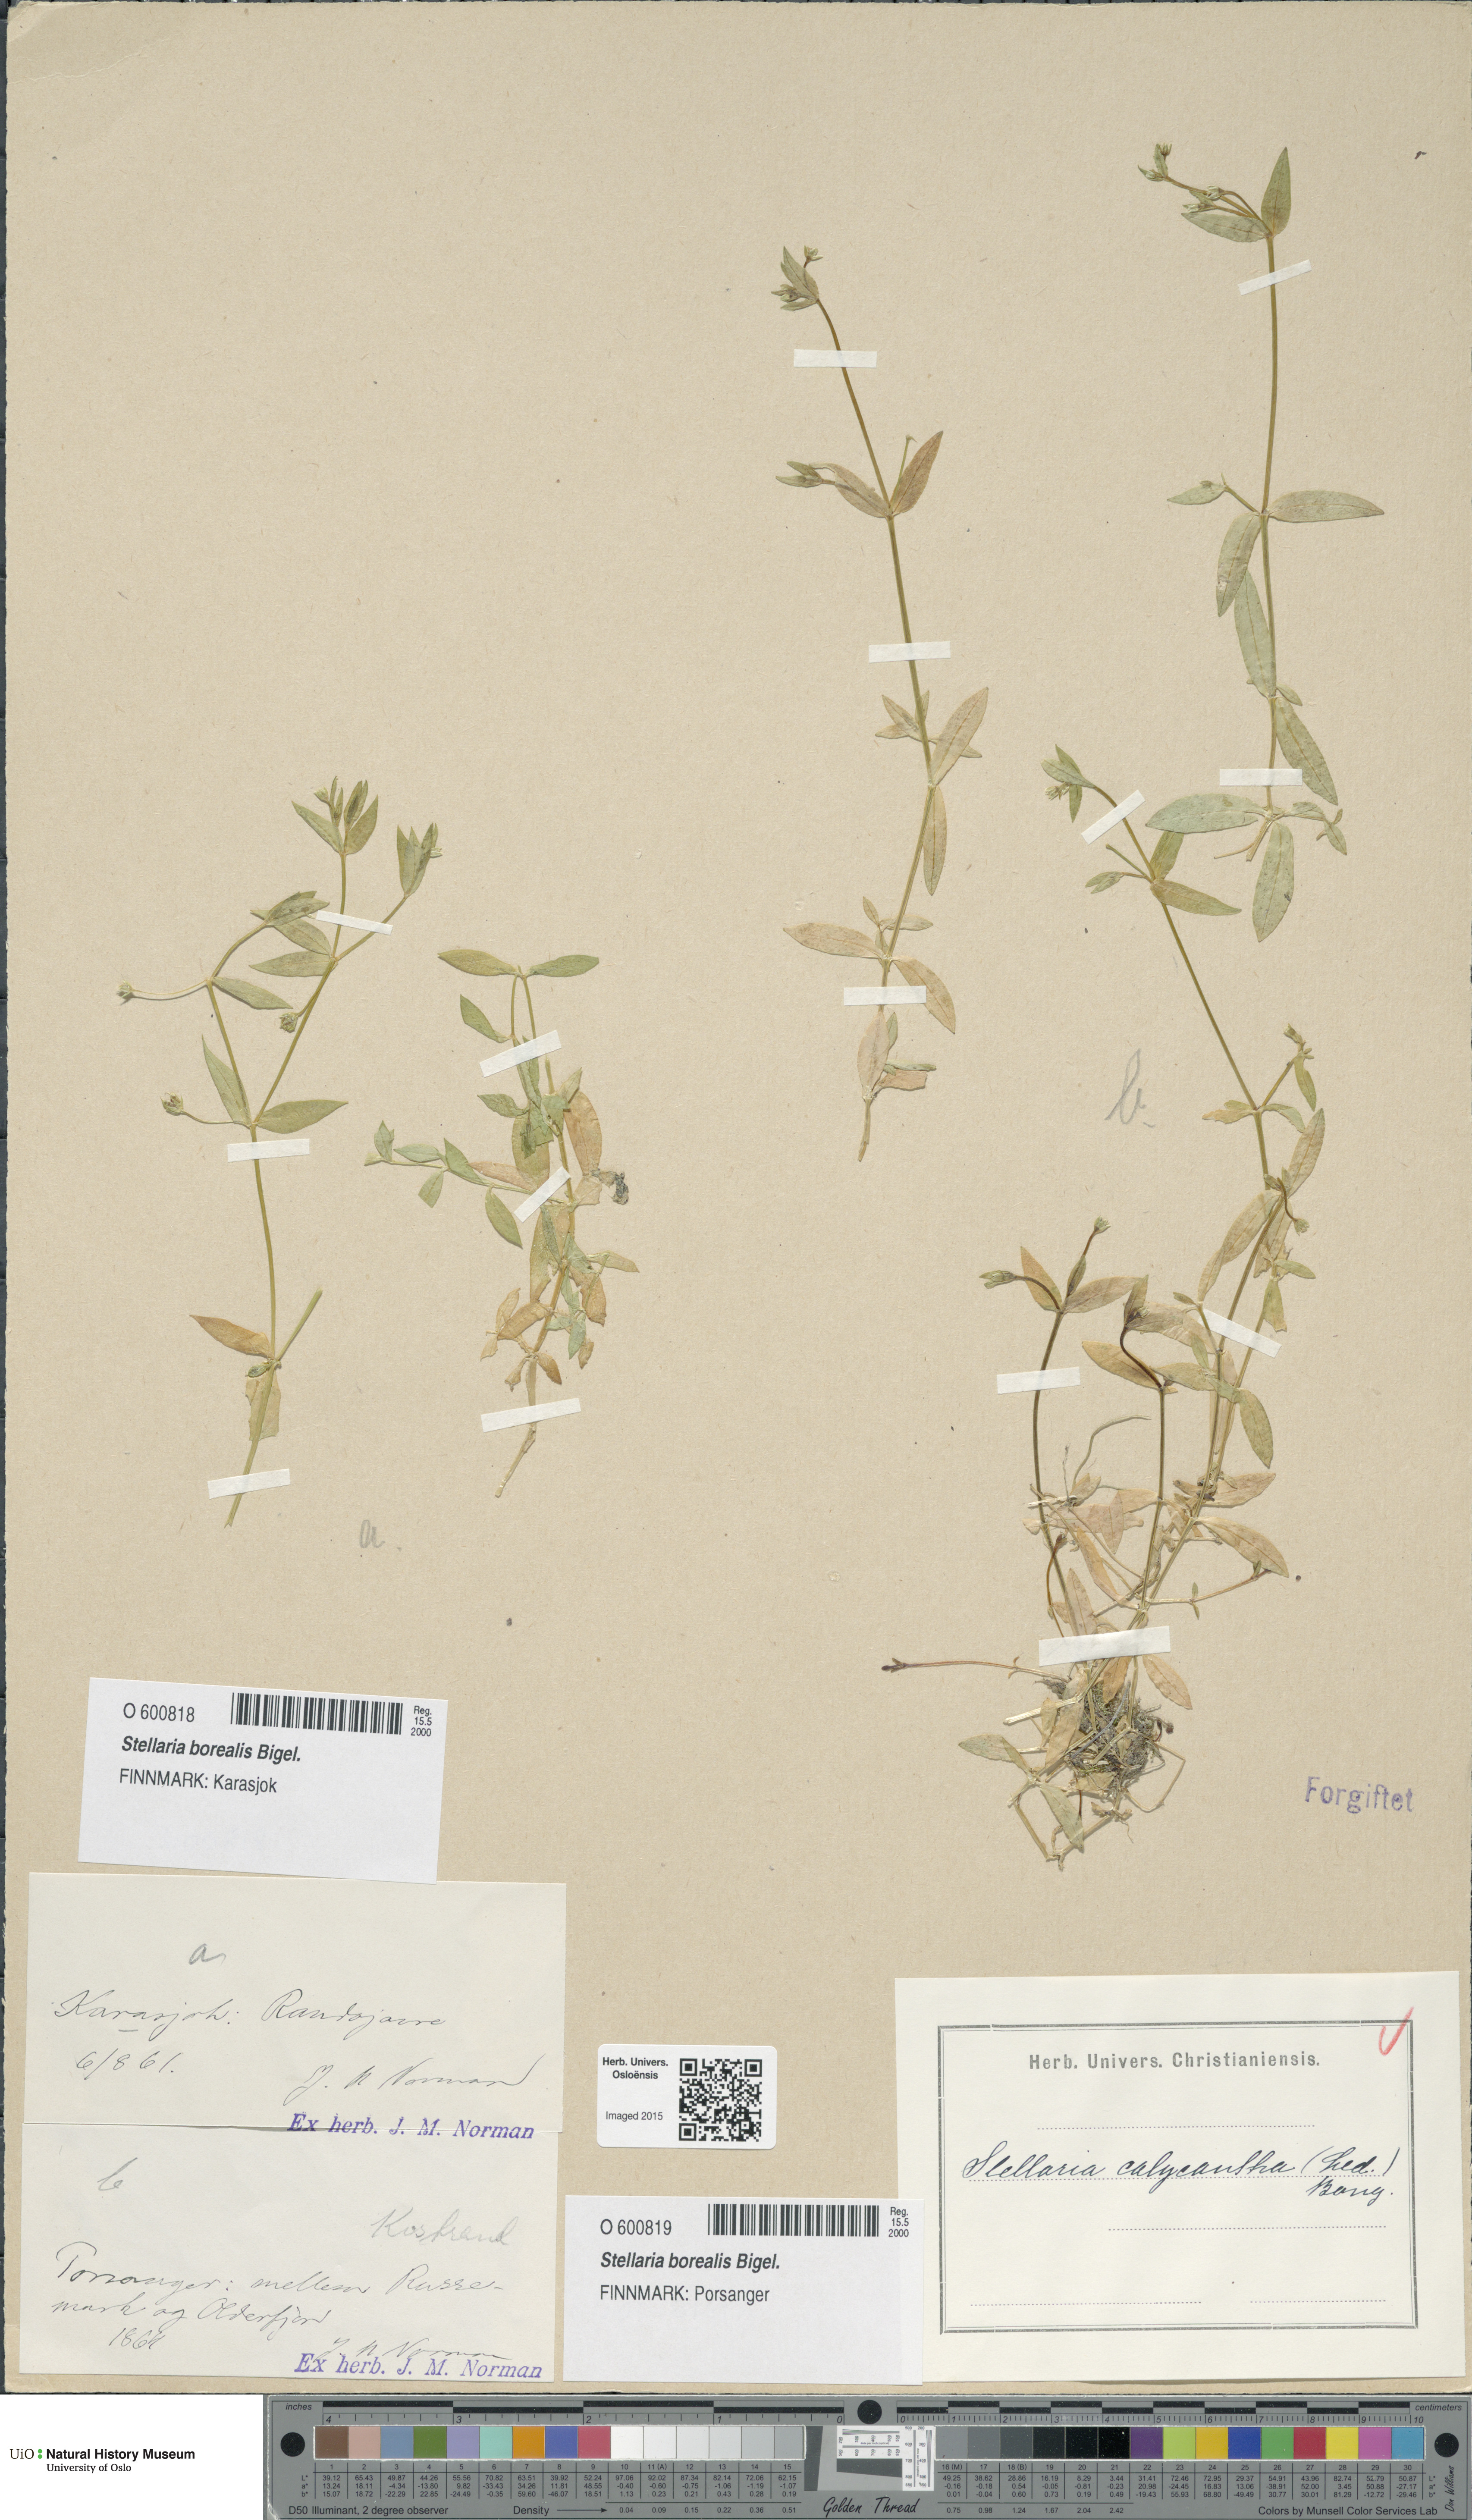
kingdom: Plantae
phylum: Tracheophyta
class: Magnoliopsida
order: Caryophyllales
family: Caryophyllaceae
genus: Stellaria
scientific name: Stellaria borealis
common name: Boreal starwort
